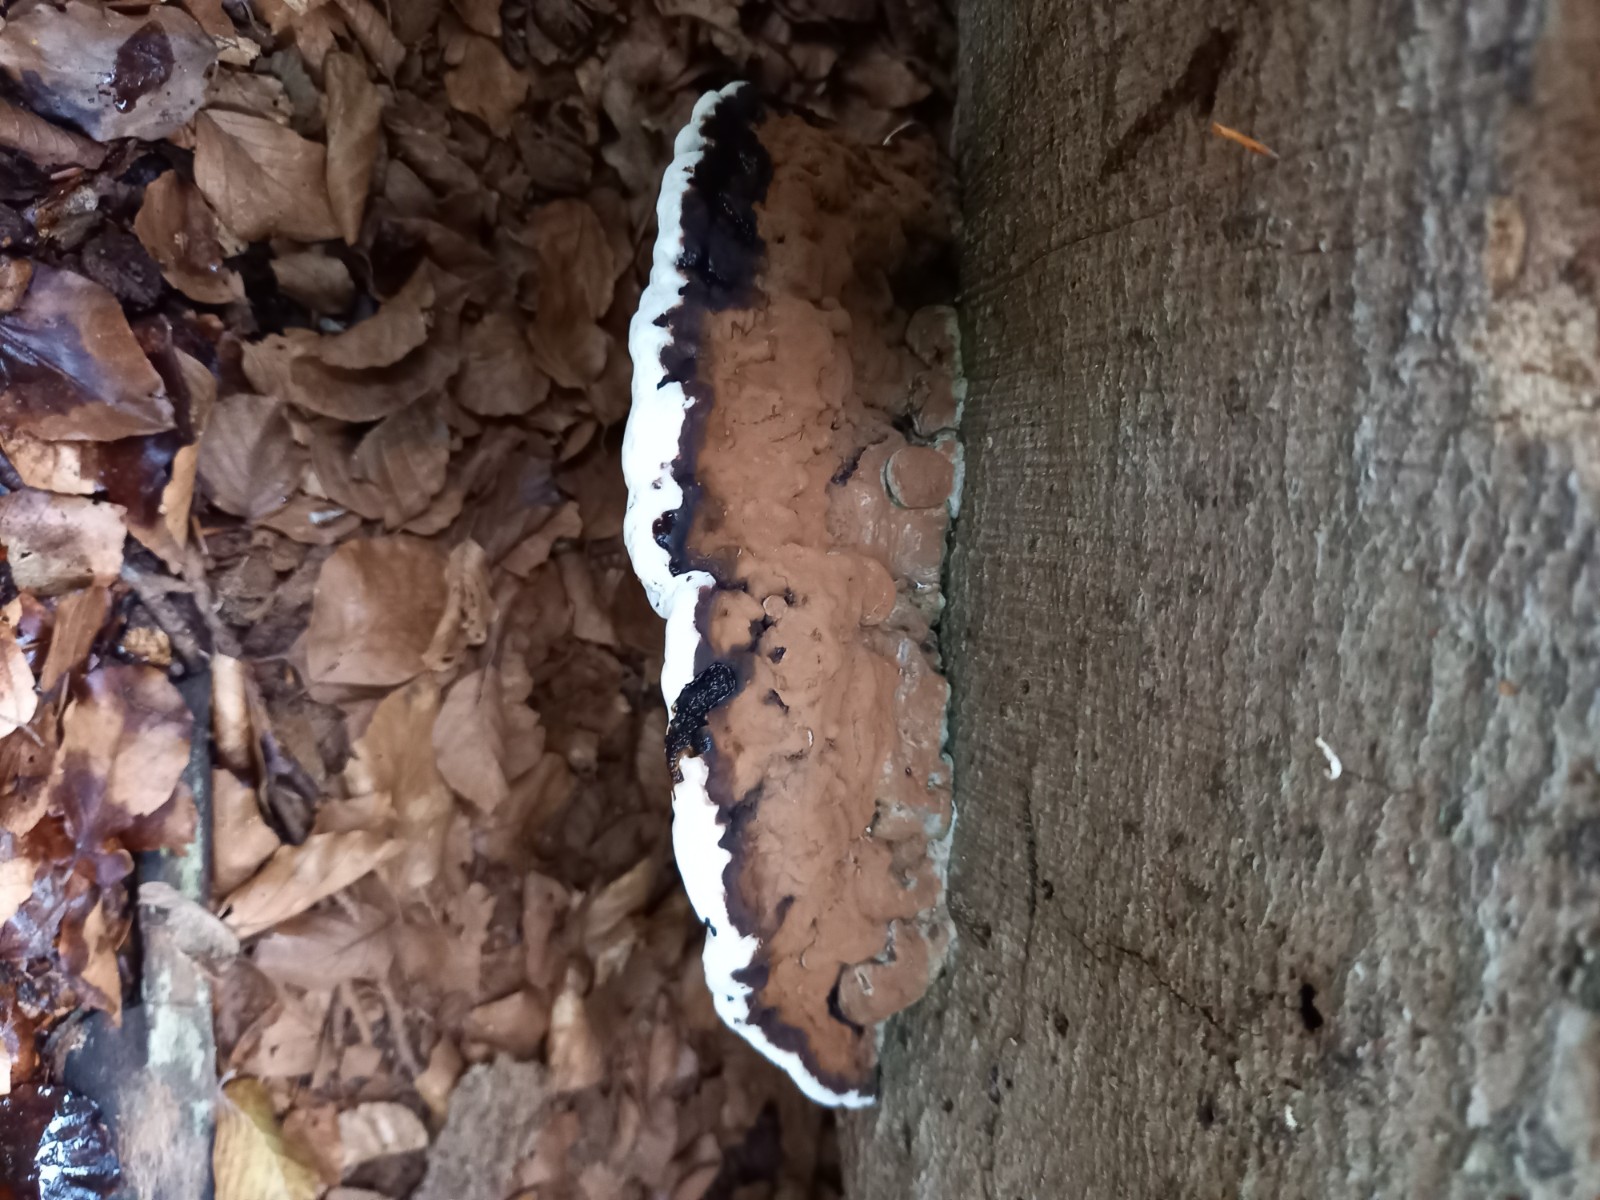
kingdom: Fungi
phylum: Basidiomycota
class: Agaricomycetes
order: Polyporales
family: Polyporaceae
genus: Ganoderma
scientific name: Ganoderma applanatum
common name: flad lakporesvamp
